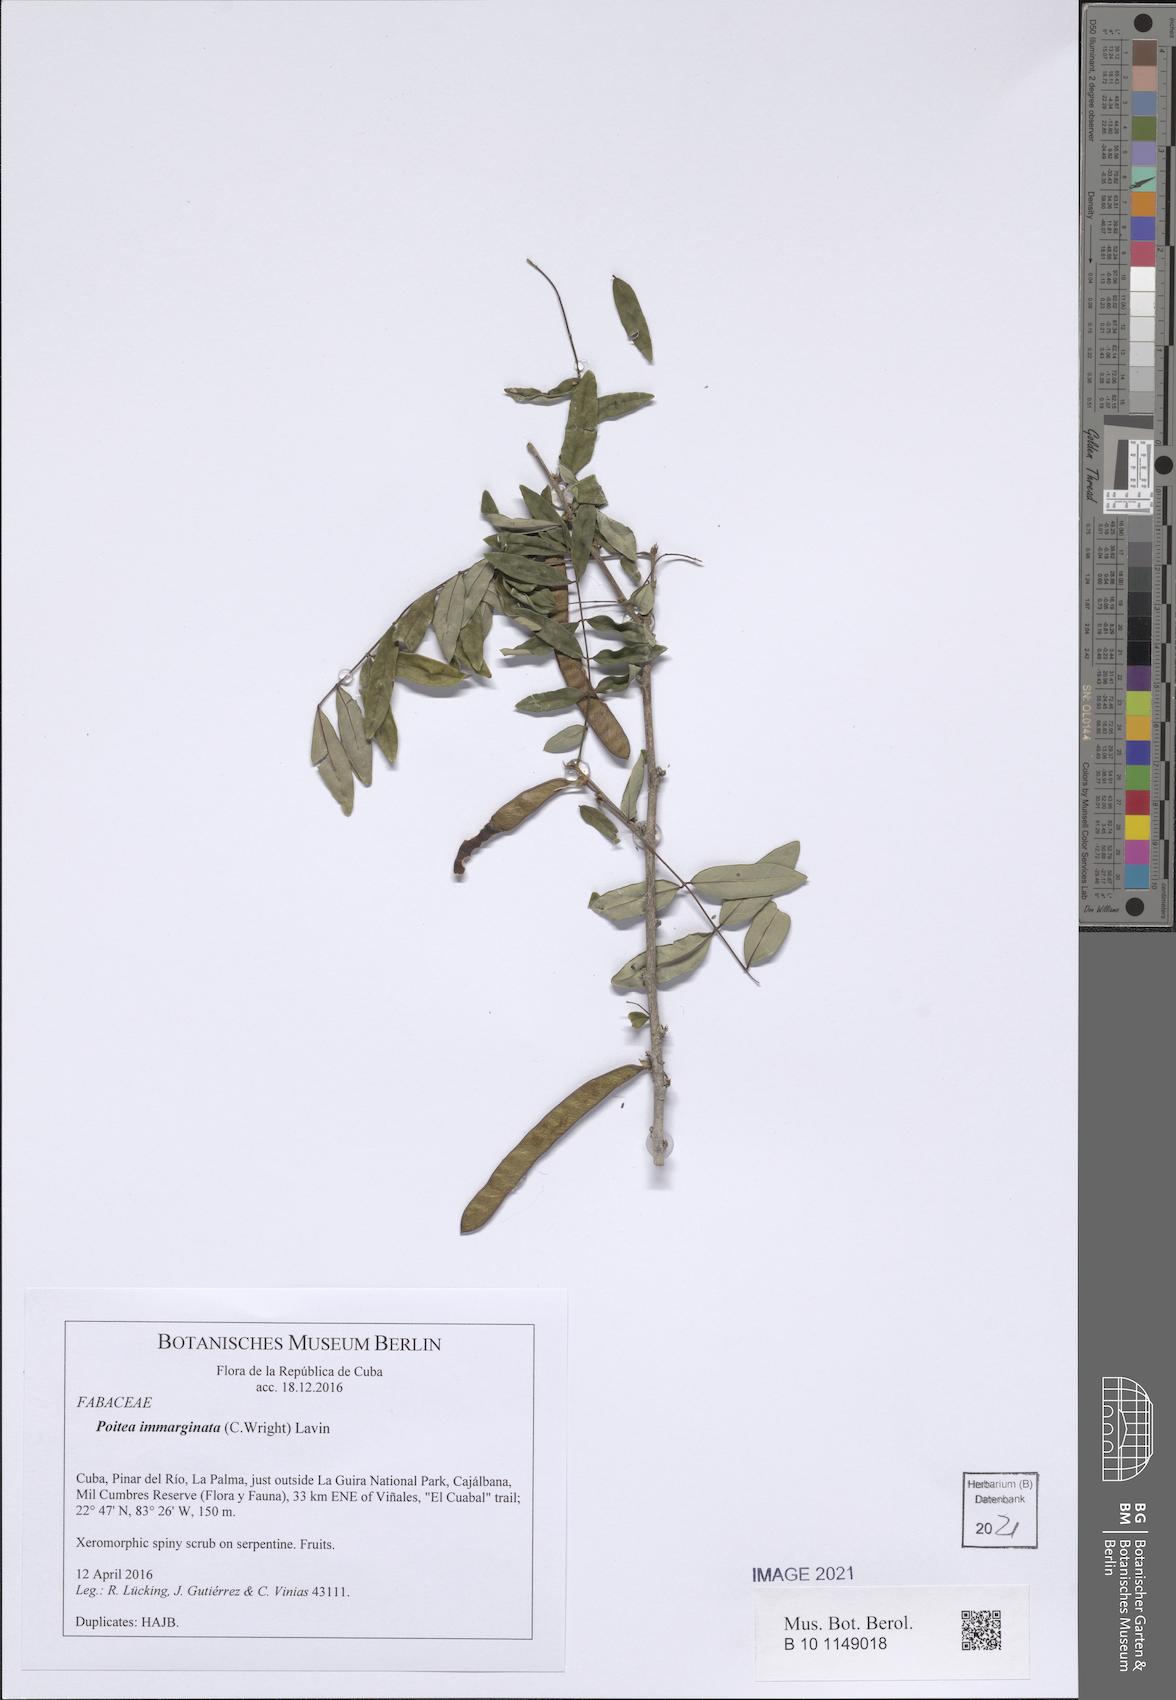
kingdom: Plantae
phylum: Tracheophyta
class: Magnoliopsida
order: Fabales
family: Fabaceae
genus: Poitea
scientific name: Poitea immarginata
